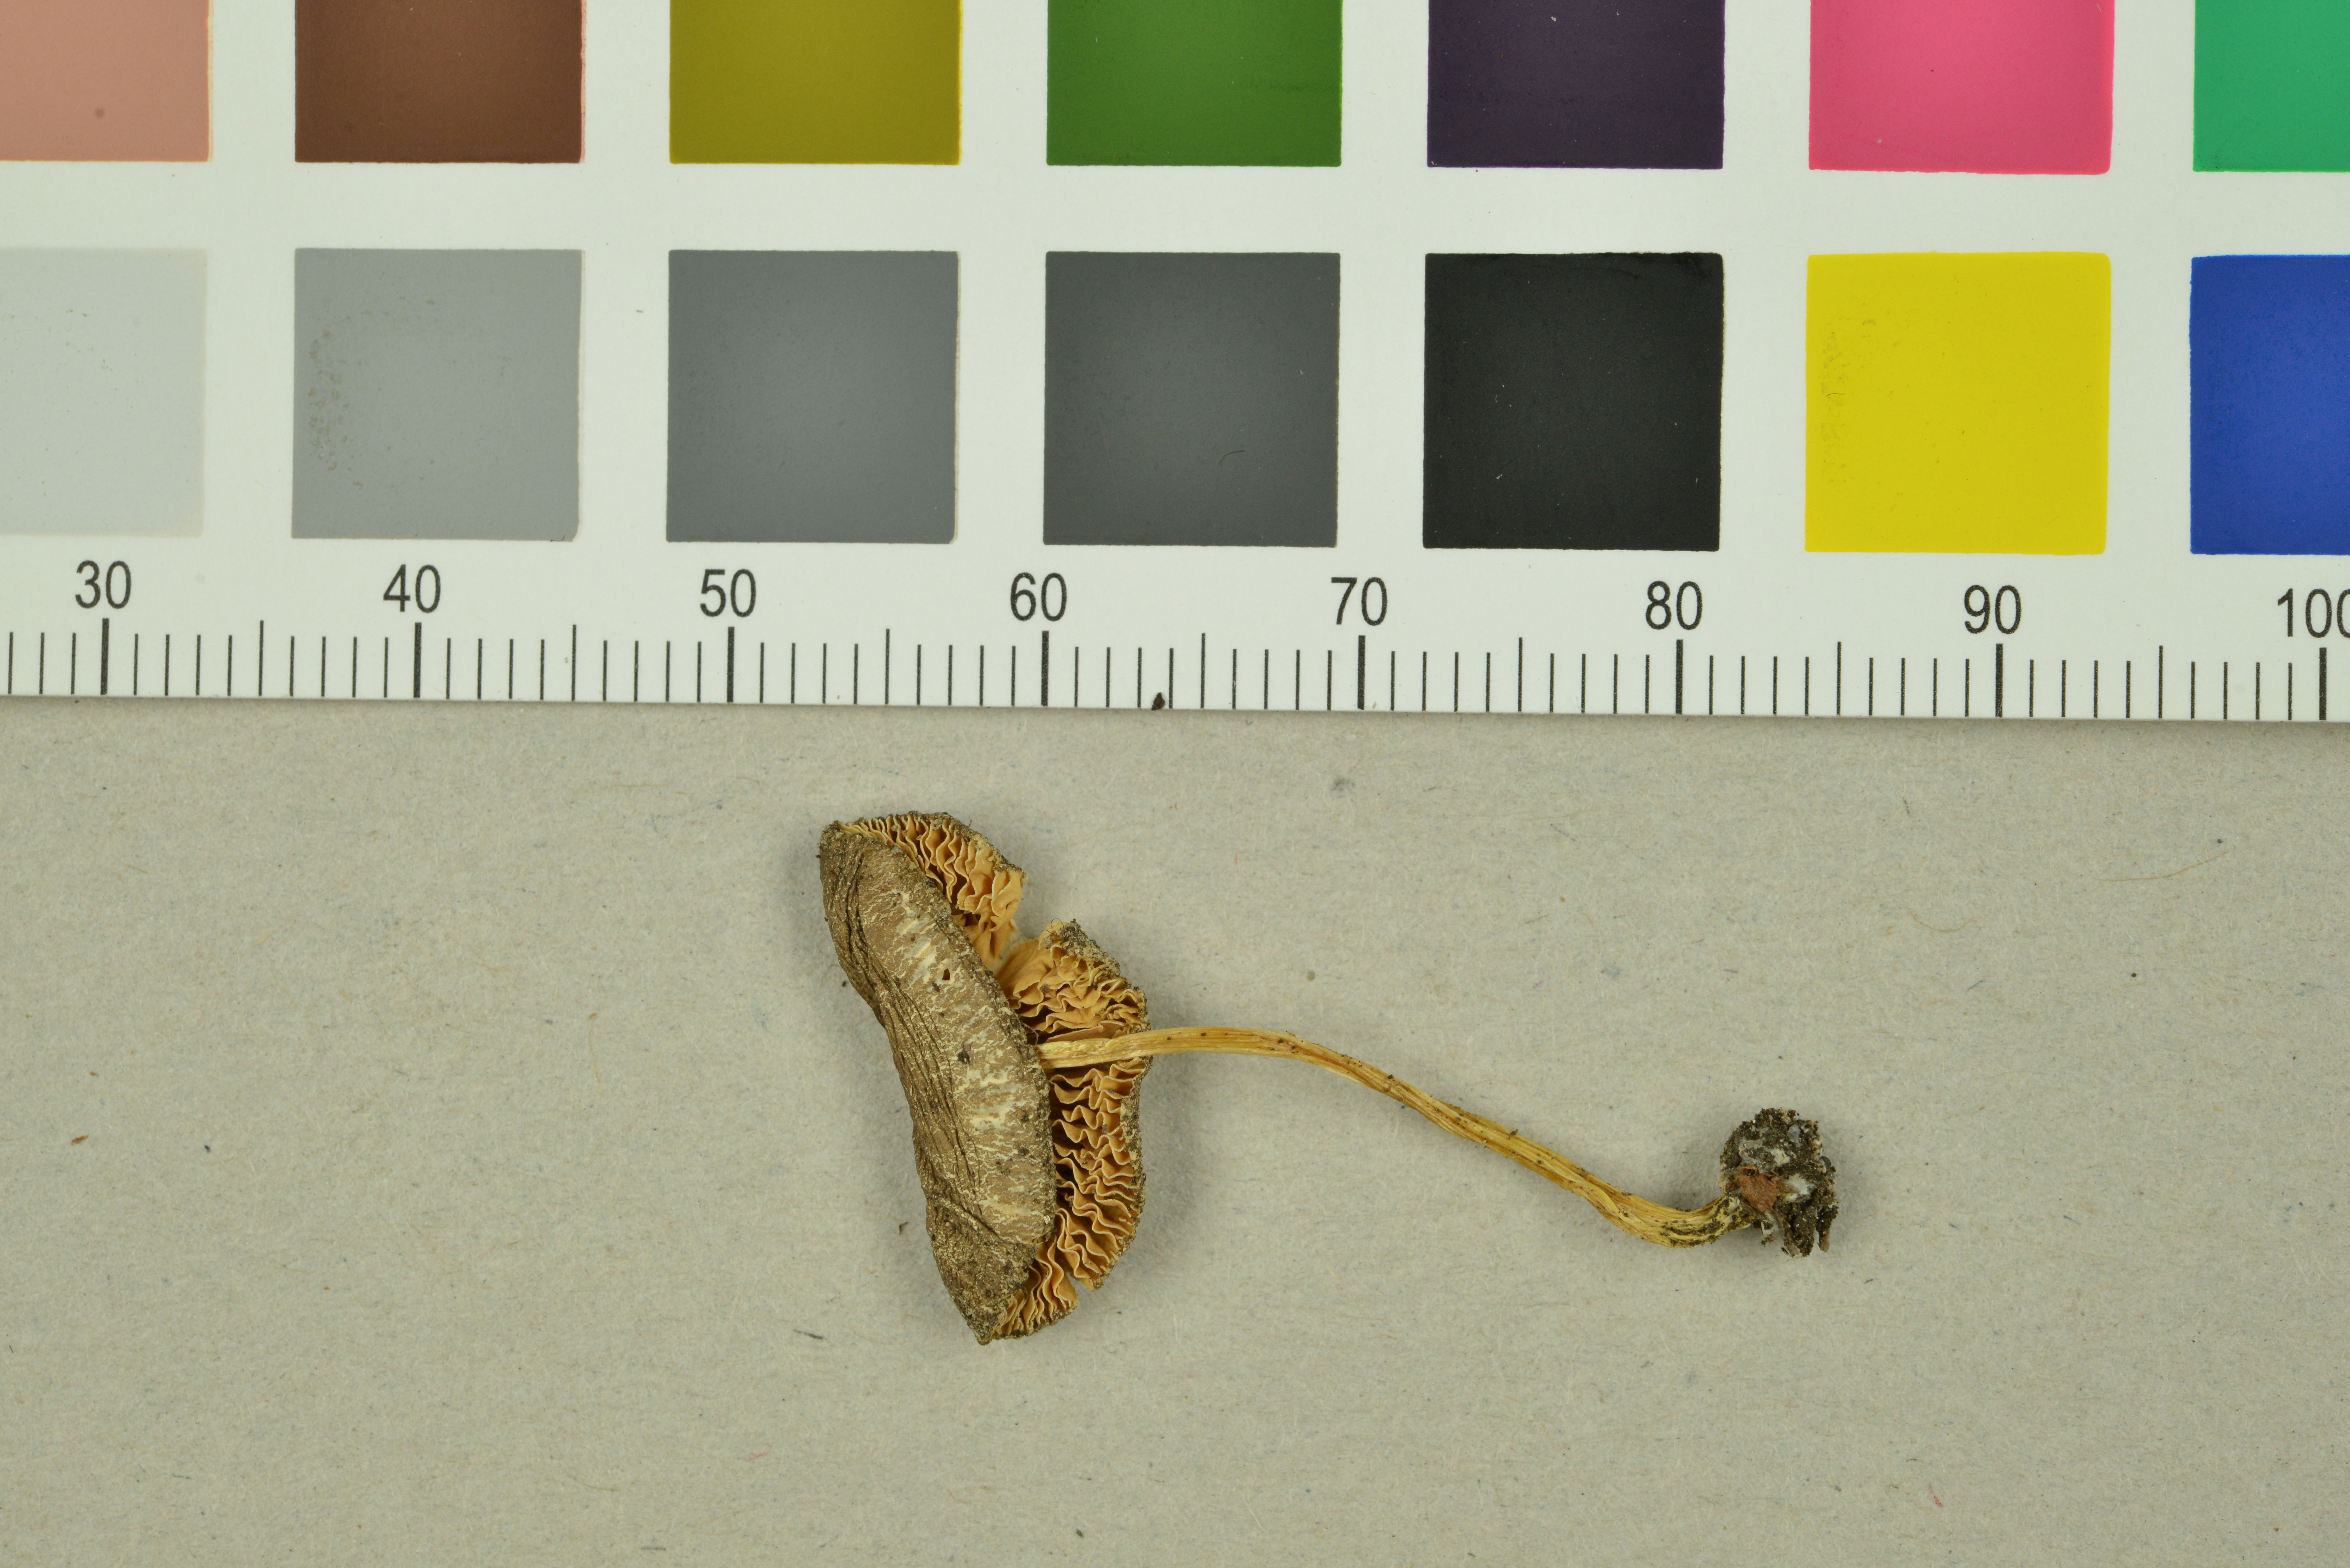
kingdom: Fungi
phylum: Basidiomycota
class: Agaricomycetes
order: Agaricales
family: Pluteaceae
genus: Pluteus
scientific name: Pluteus romellii
